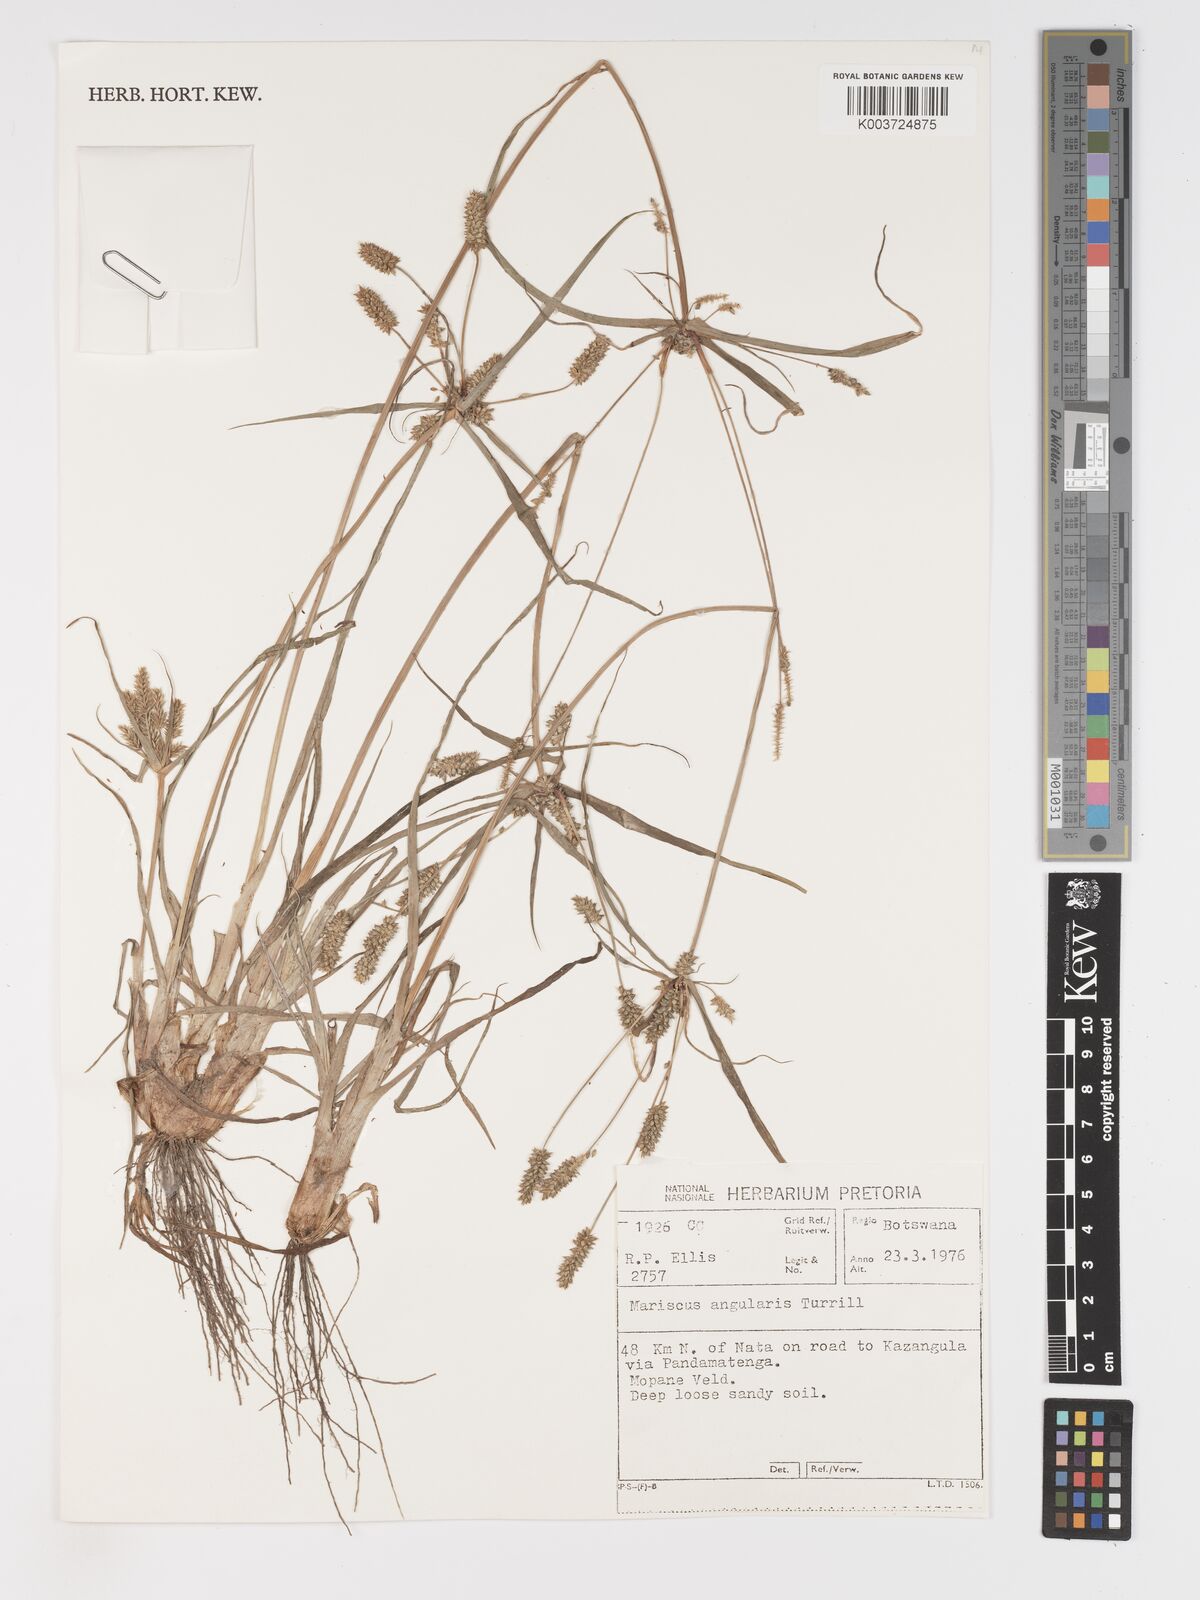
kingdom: Plantae
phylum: Tracheophyta
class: Liliopsida
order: Poales
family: Cyperaceae
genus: Cyperus
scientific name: Cyperus chersinus
